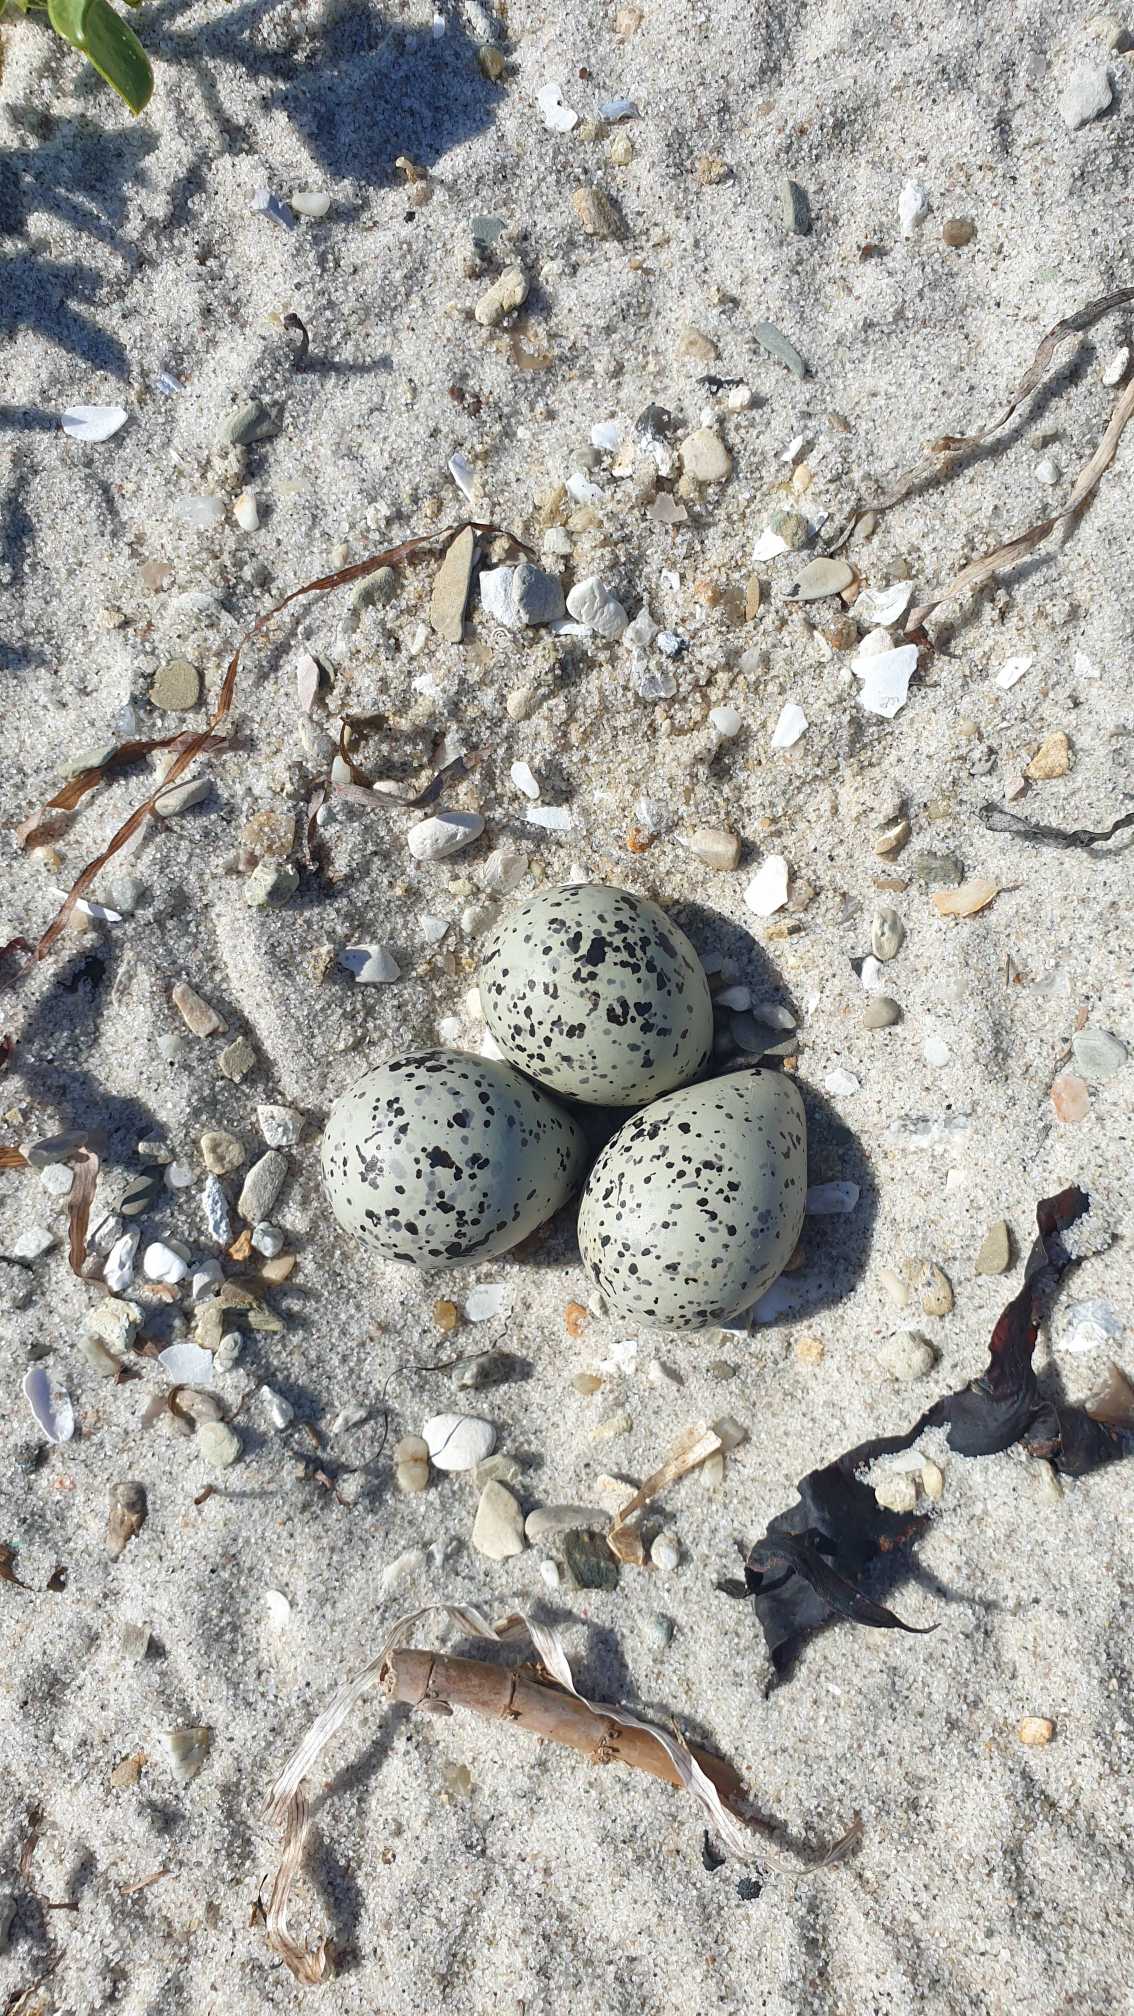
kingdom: Animalia
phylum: Chordata
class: Aves
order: Charadriiformes
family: Laridae
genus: Sterna
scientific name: Sterna paradisaea
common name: Havterne
